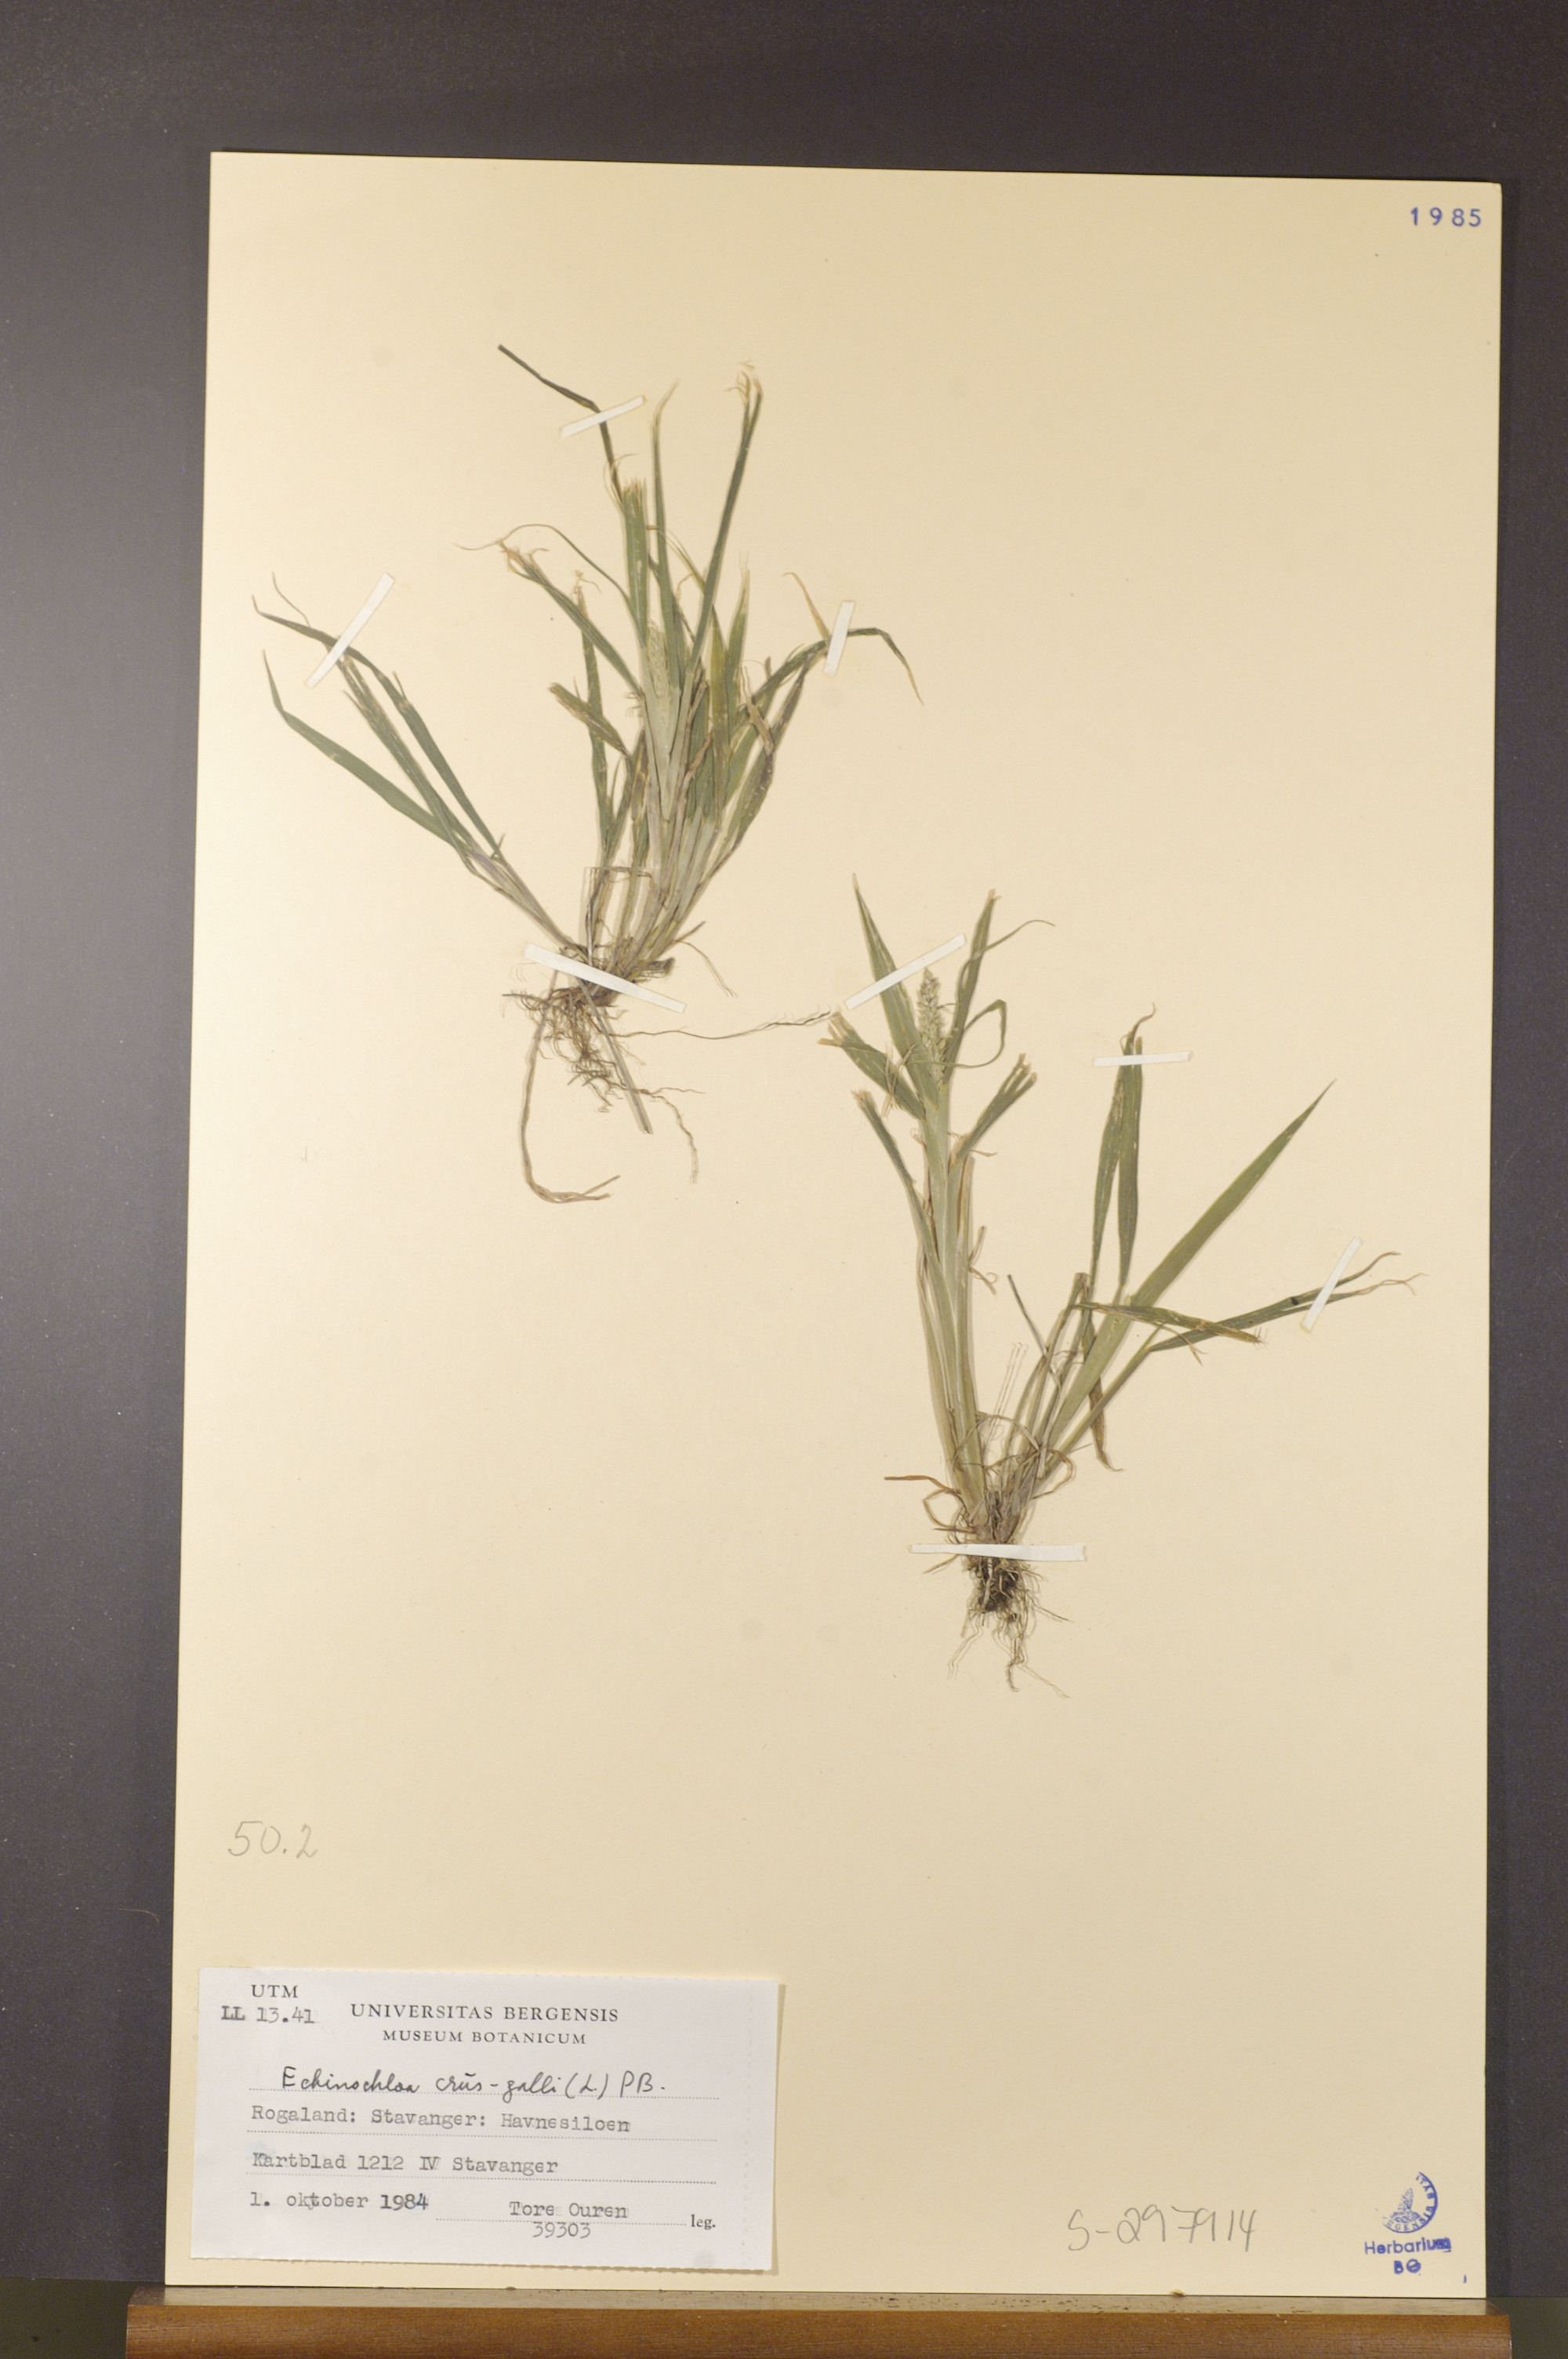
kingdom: Plantae
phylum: Tracheophyta
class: Liliopsida
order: Poales
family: Poaceae
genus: Echinochloa
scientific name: Echinochloa crus-galli
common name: Cockspur
